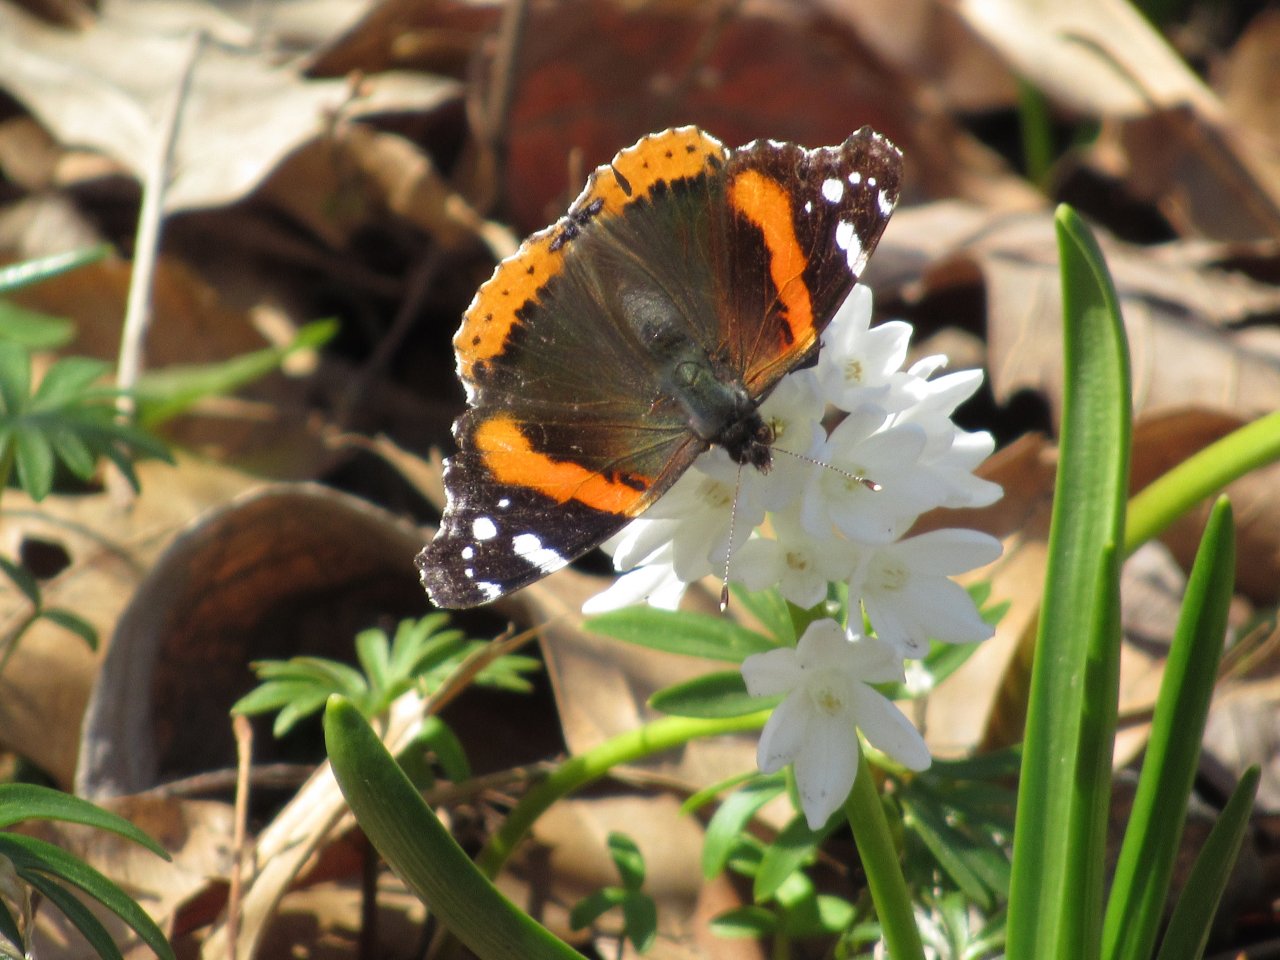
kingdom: Animalia
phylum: Arthropoda
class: Insecta
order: Lepidoptera
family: Nymphalidae
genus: Vanessa
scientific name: Vanessa atalanta
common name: Red Admiral
